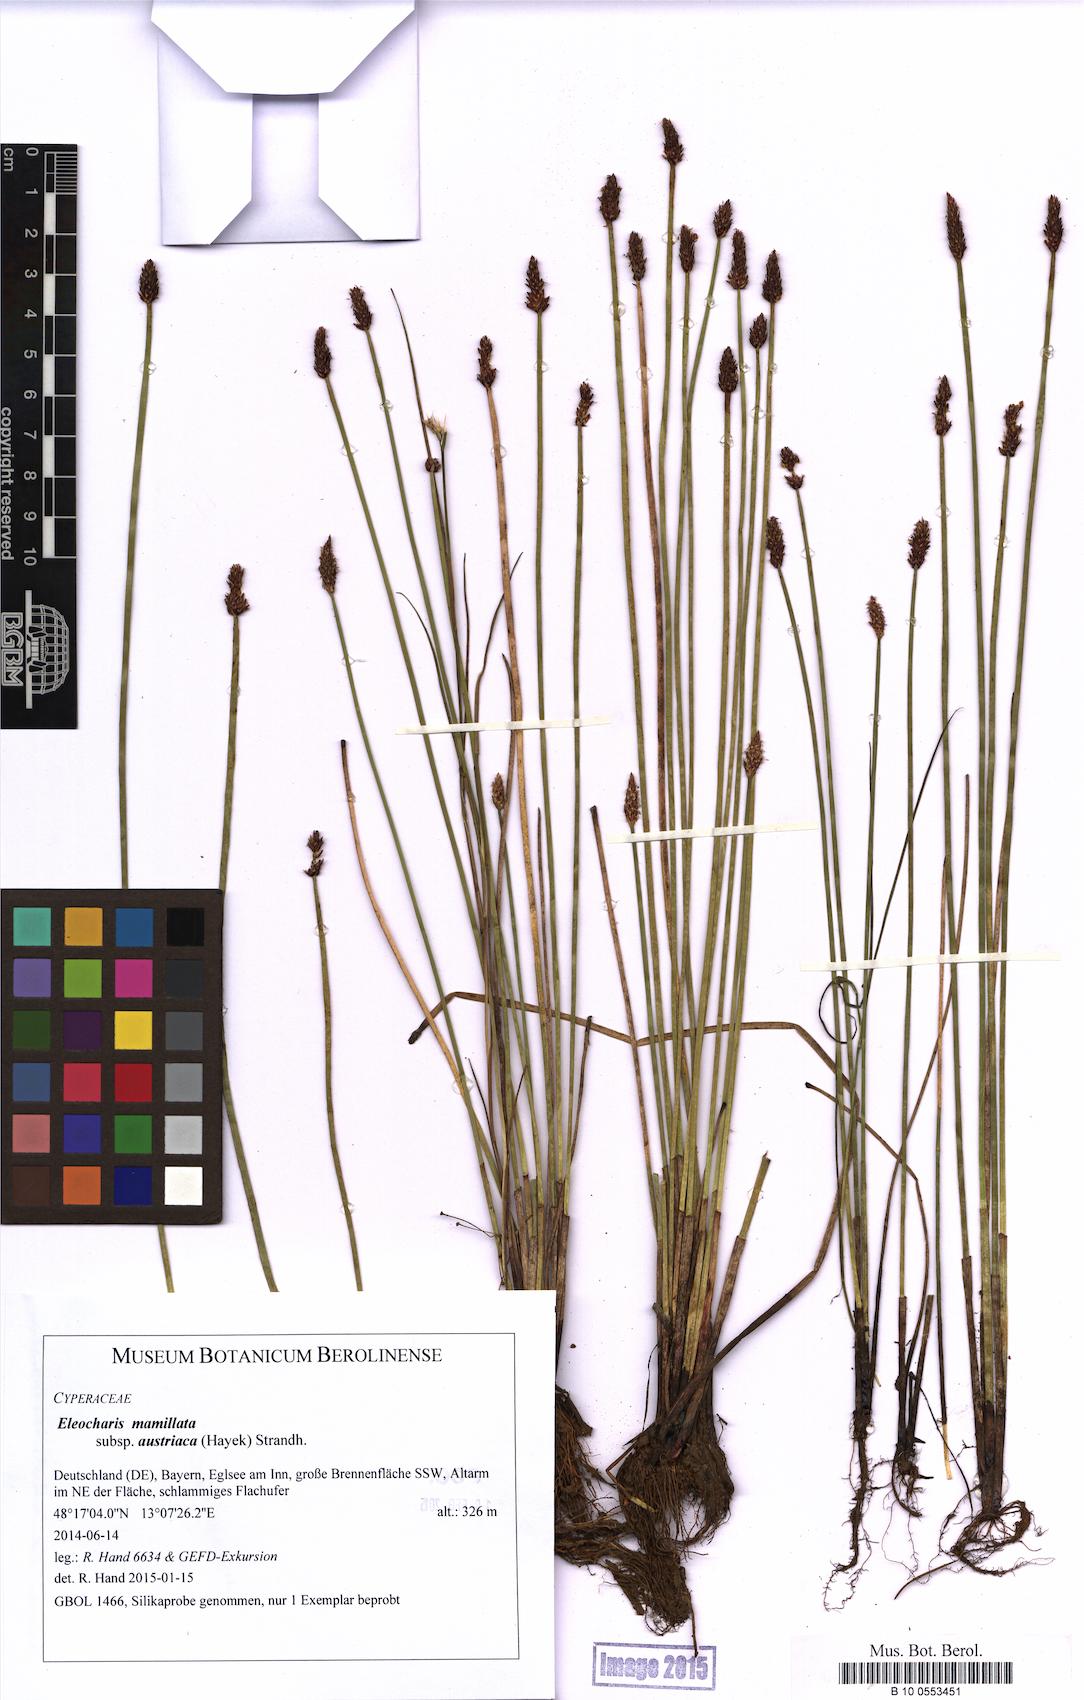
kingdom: Plantae
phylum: Tracheophyta
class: Liliopsida
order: Poales
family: Cyperaceae
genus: Eleocharis
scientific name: Eleocharis mamillata
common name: Northern spike-rush
